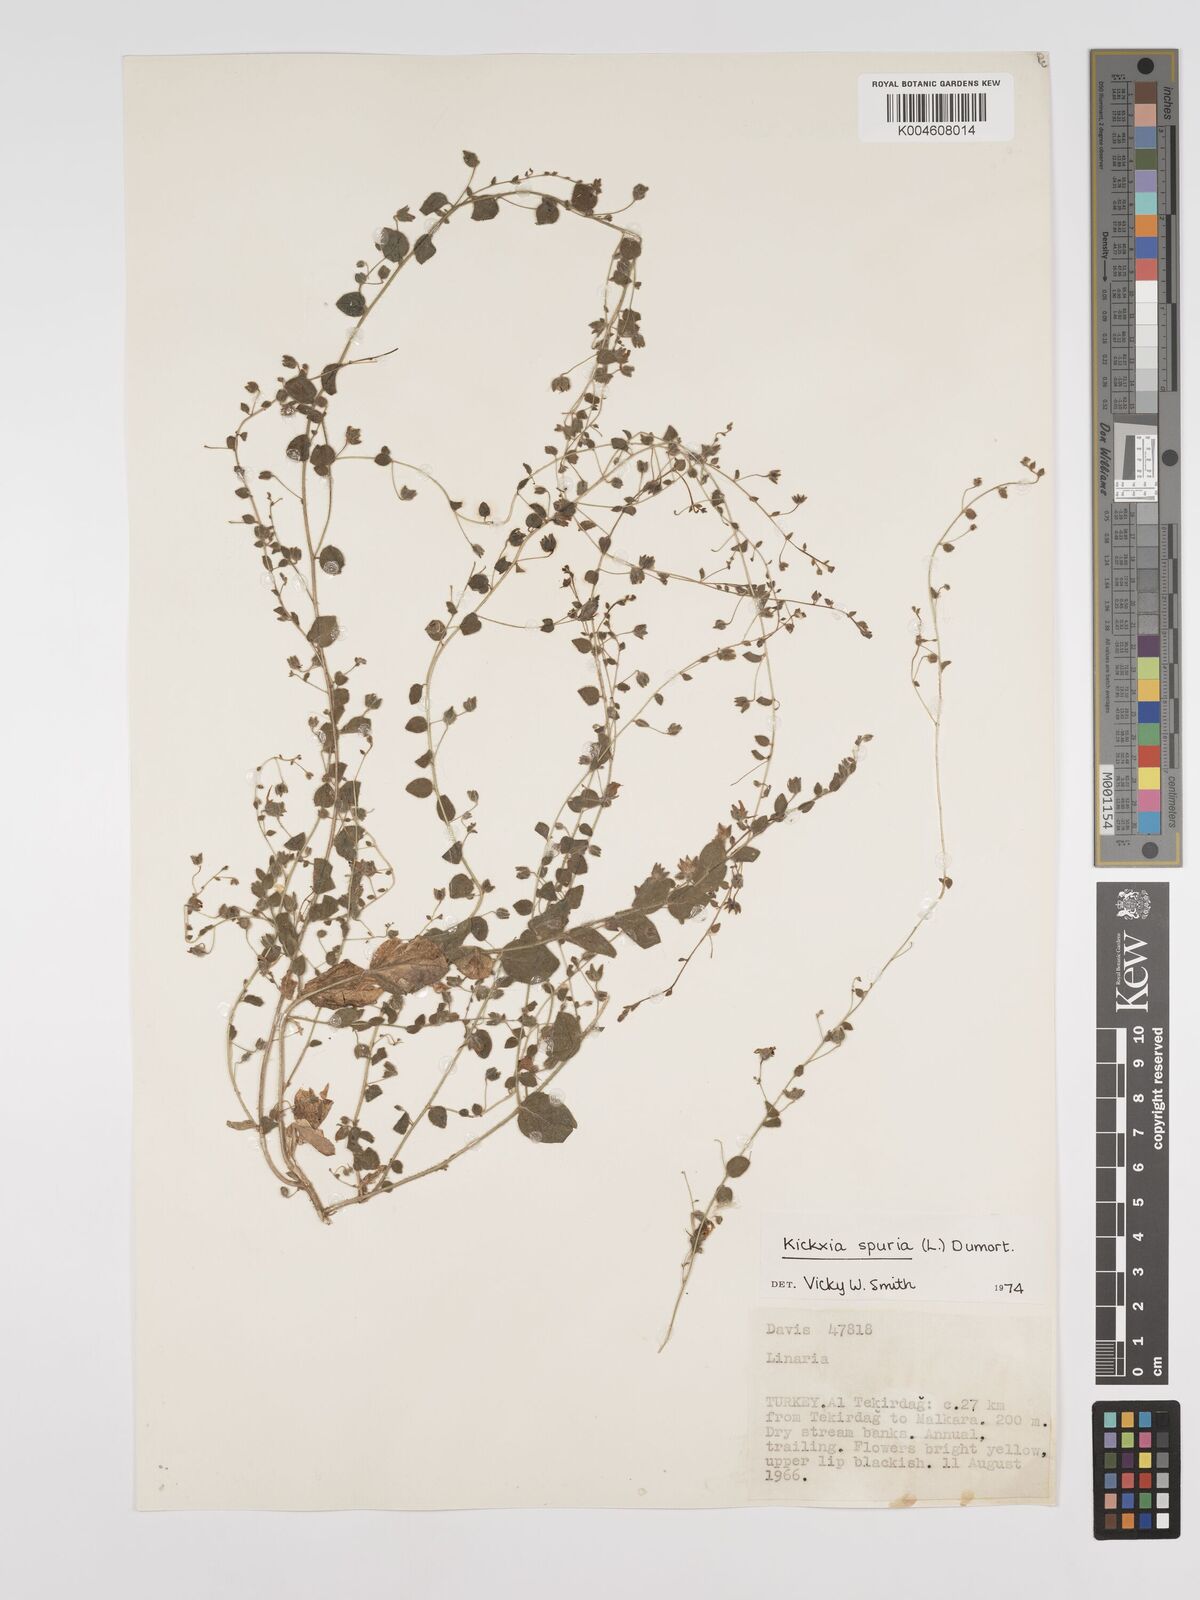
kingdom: Plantae
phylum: Tracheophyta
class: Magnoliopsida
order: Lamiales
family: Plantaginaceae
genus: Kickxia
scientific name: Kickxia spuria
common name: Round-leaved fluellen
